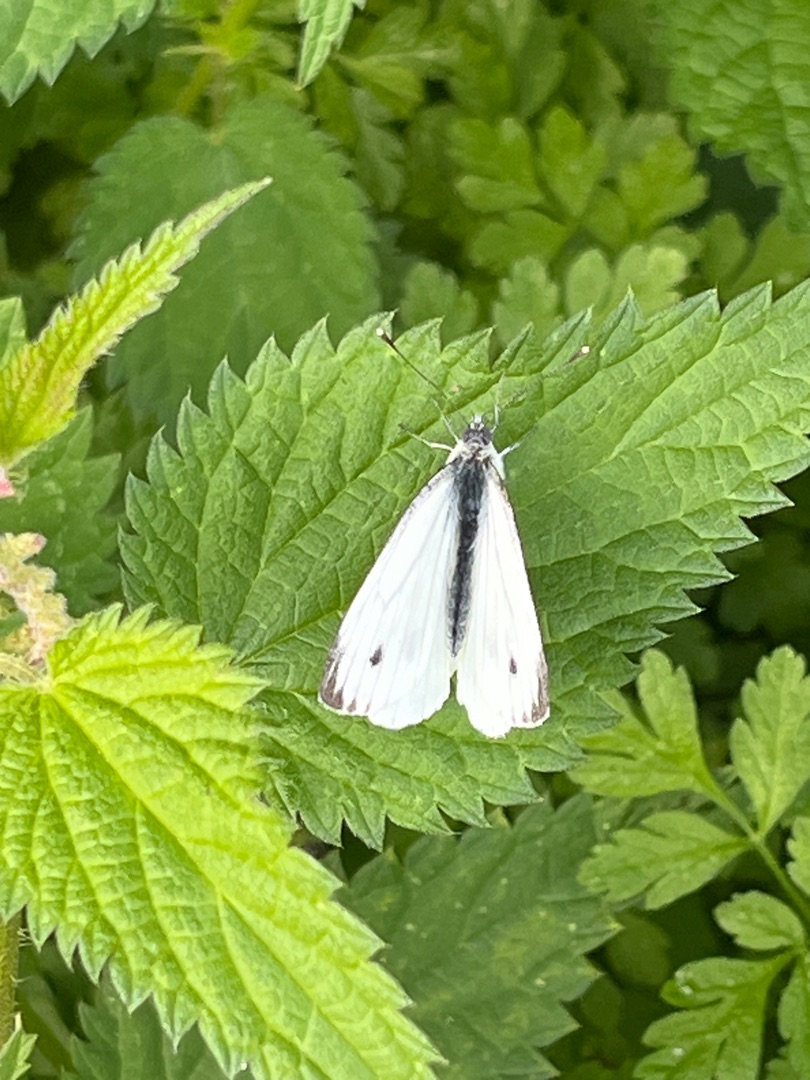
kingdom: Animalia
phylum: Arthropoda
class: Insecta
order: Lepidoptera
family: Pieridae
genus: Pieris
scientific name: Pieris napi
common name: Grønåret kålsommerfugl
